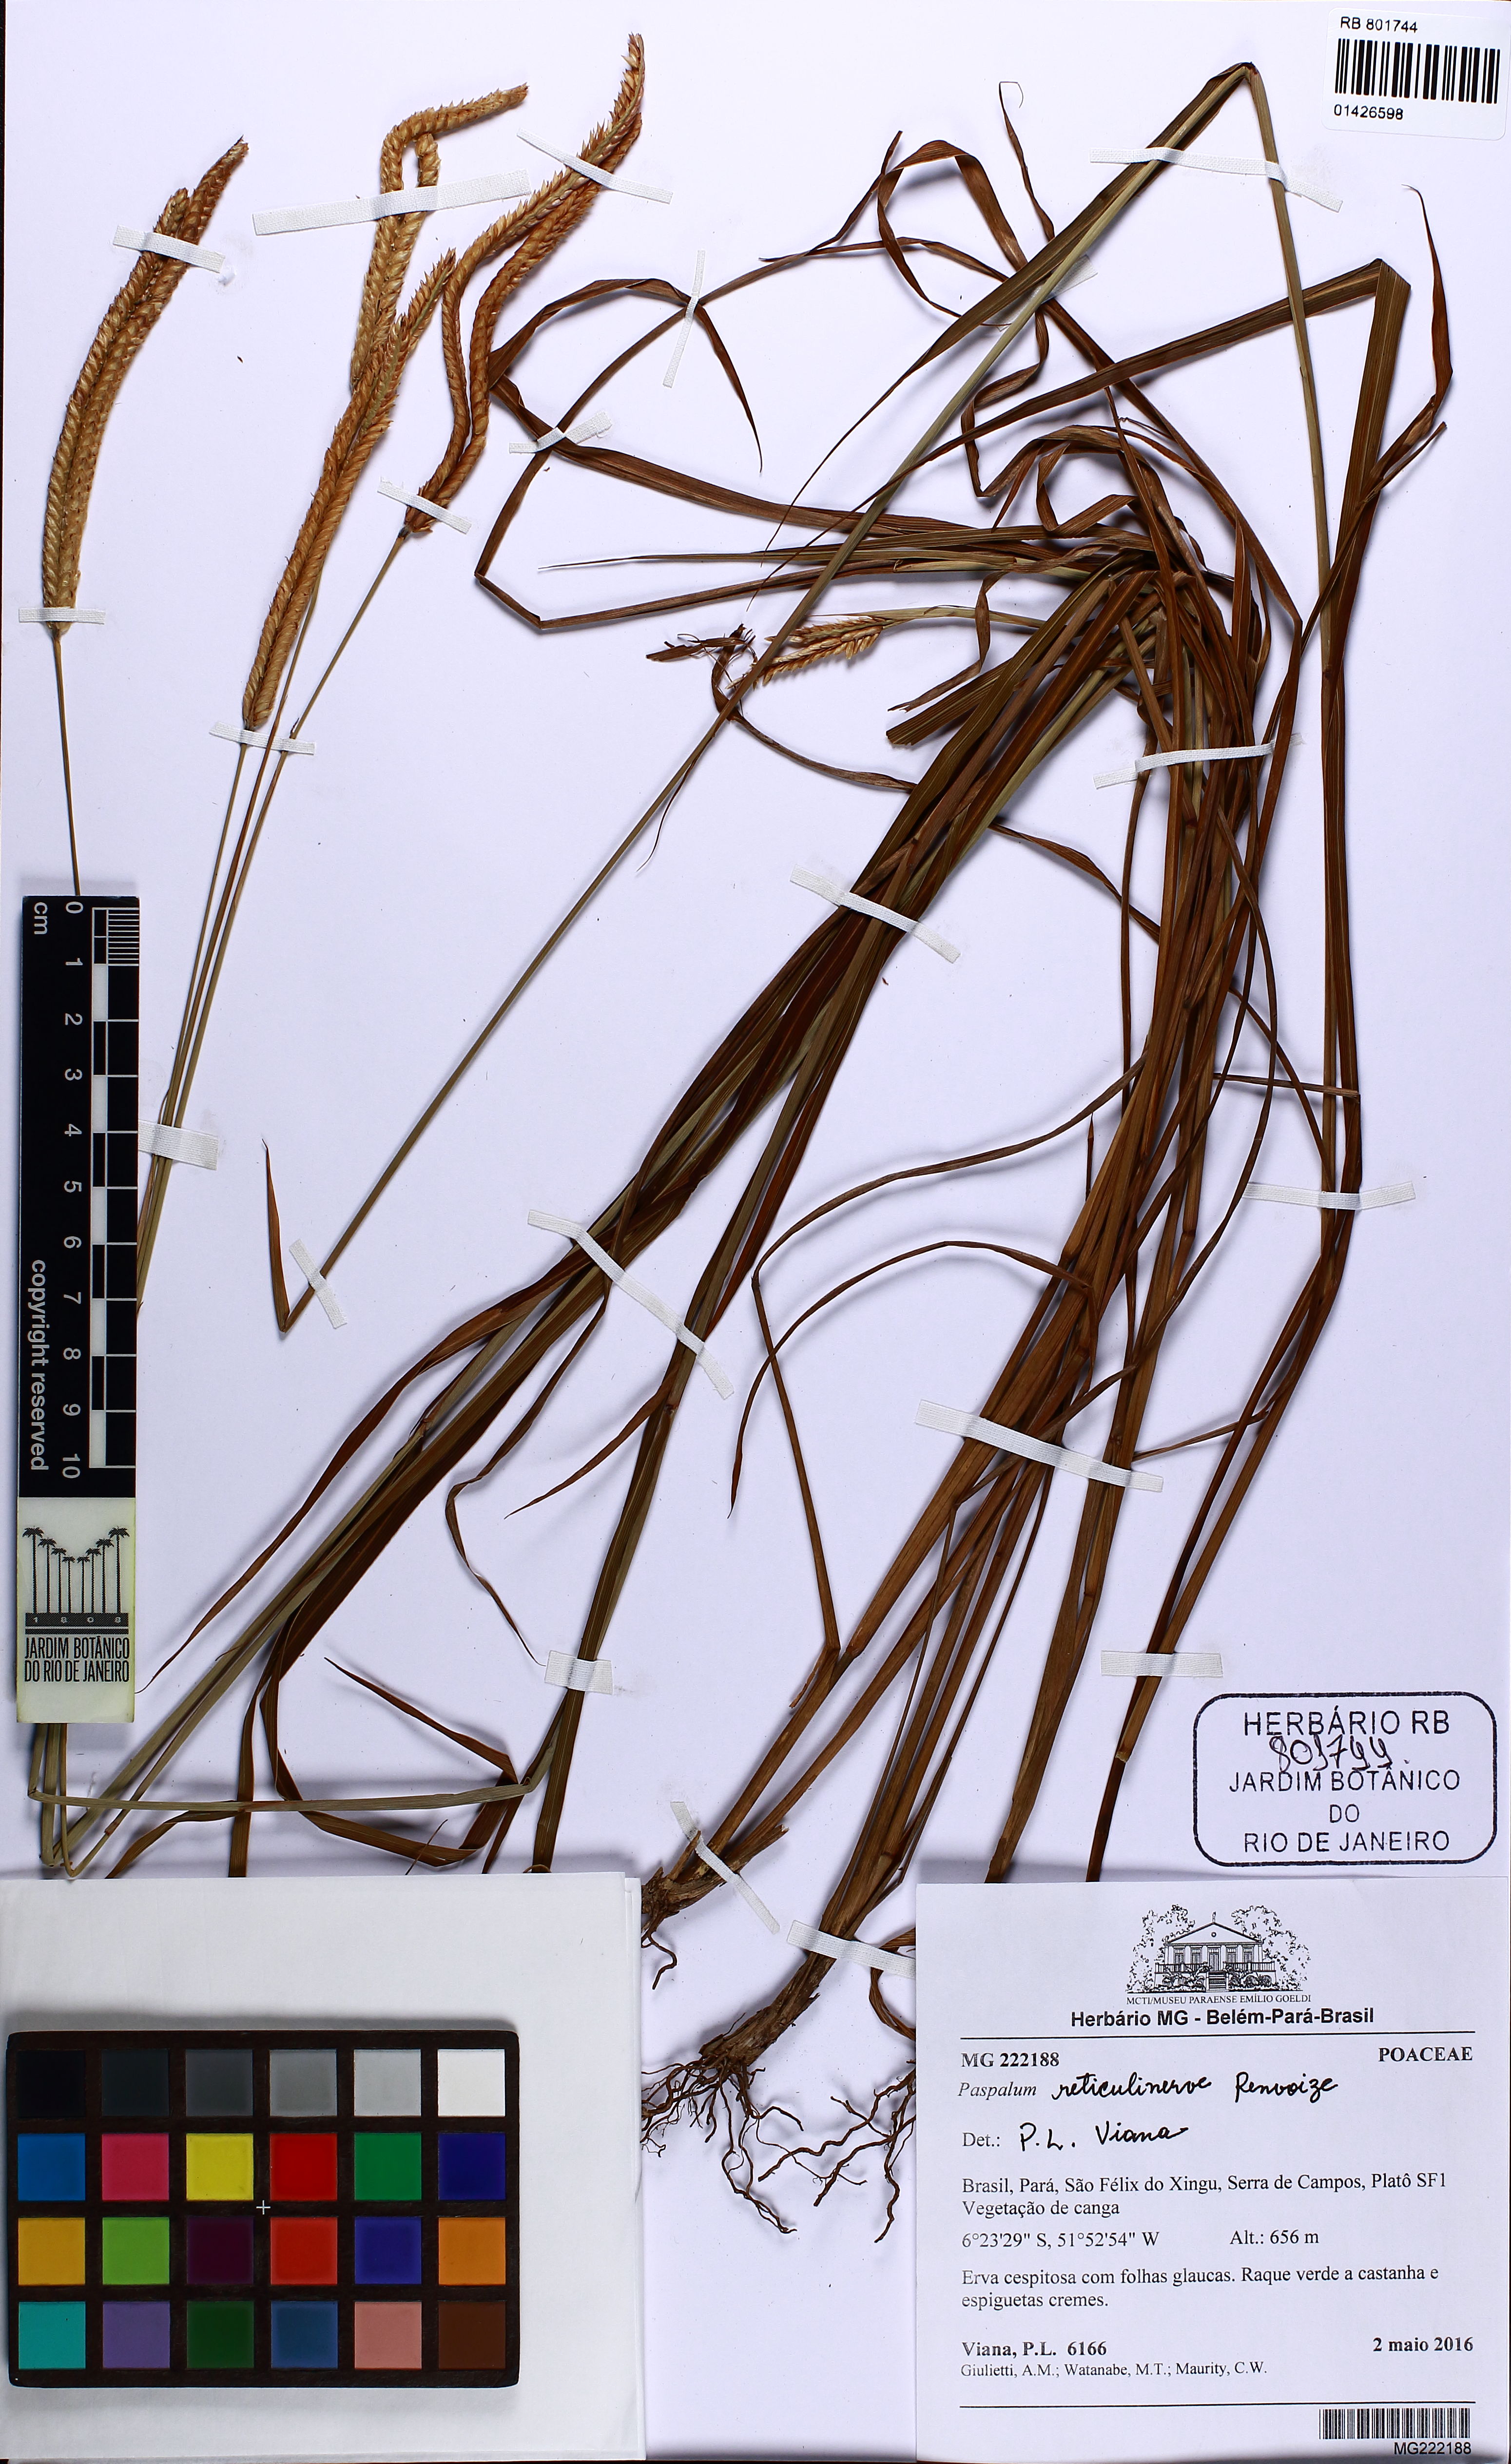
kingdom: Plantae
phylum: Tracheophyta
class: Liliopsida
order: Poales
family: Poaceae
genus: Paspalum
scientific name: Paspalum reticulinerve
